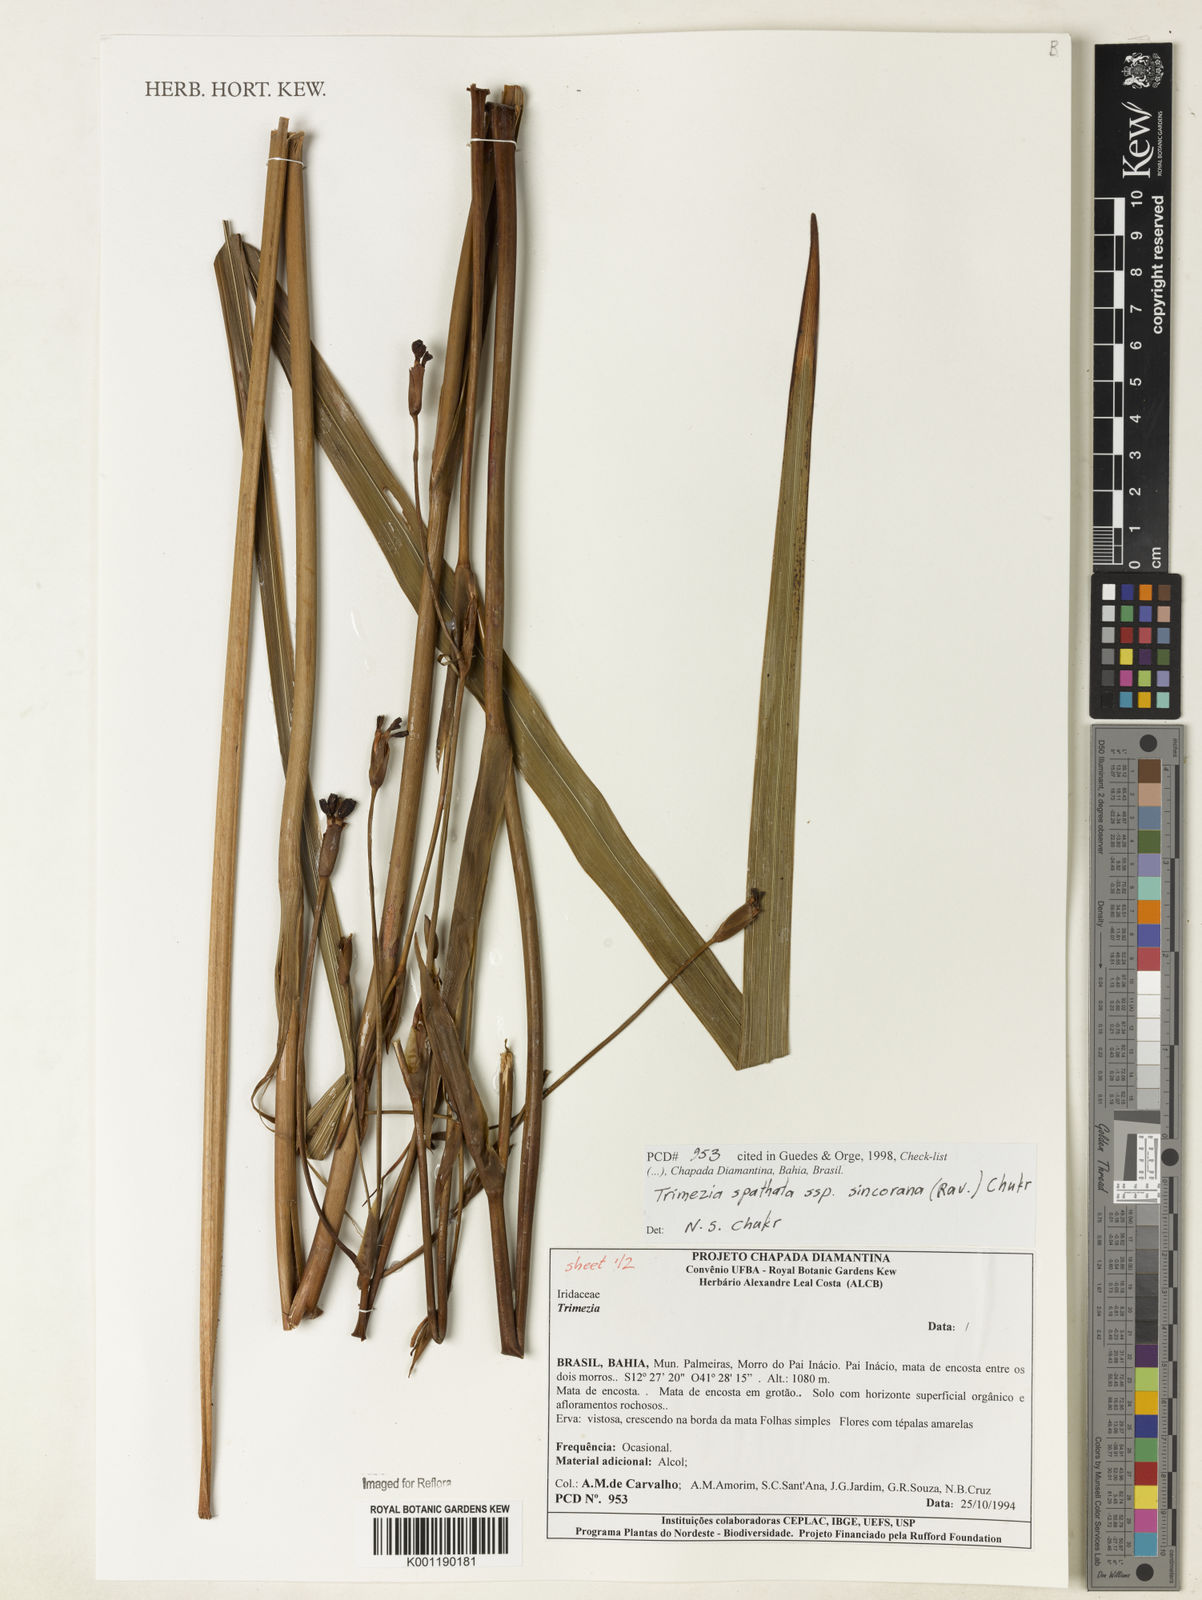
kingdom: Plantae
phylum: Tracheophyta
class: Liliopsida
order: Asparagales
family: Iridaceae
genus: Trimezia
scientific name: Trimezia spathata
